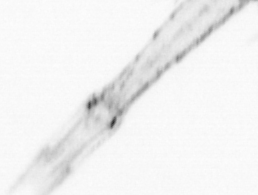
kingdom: Animalia
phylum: Arthropoda
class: Malacostraca
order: Decapoda
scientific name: Decapoda
